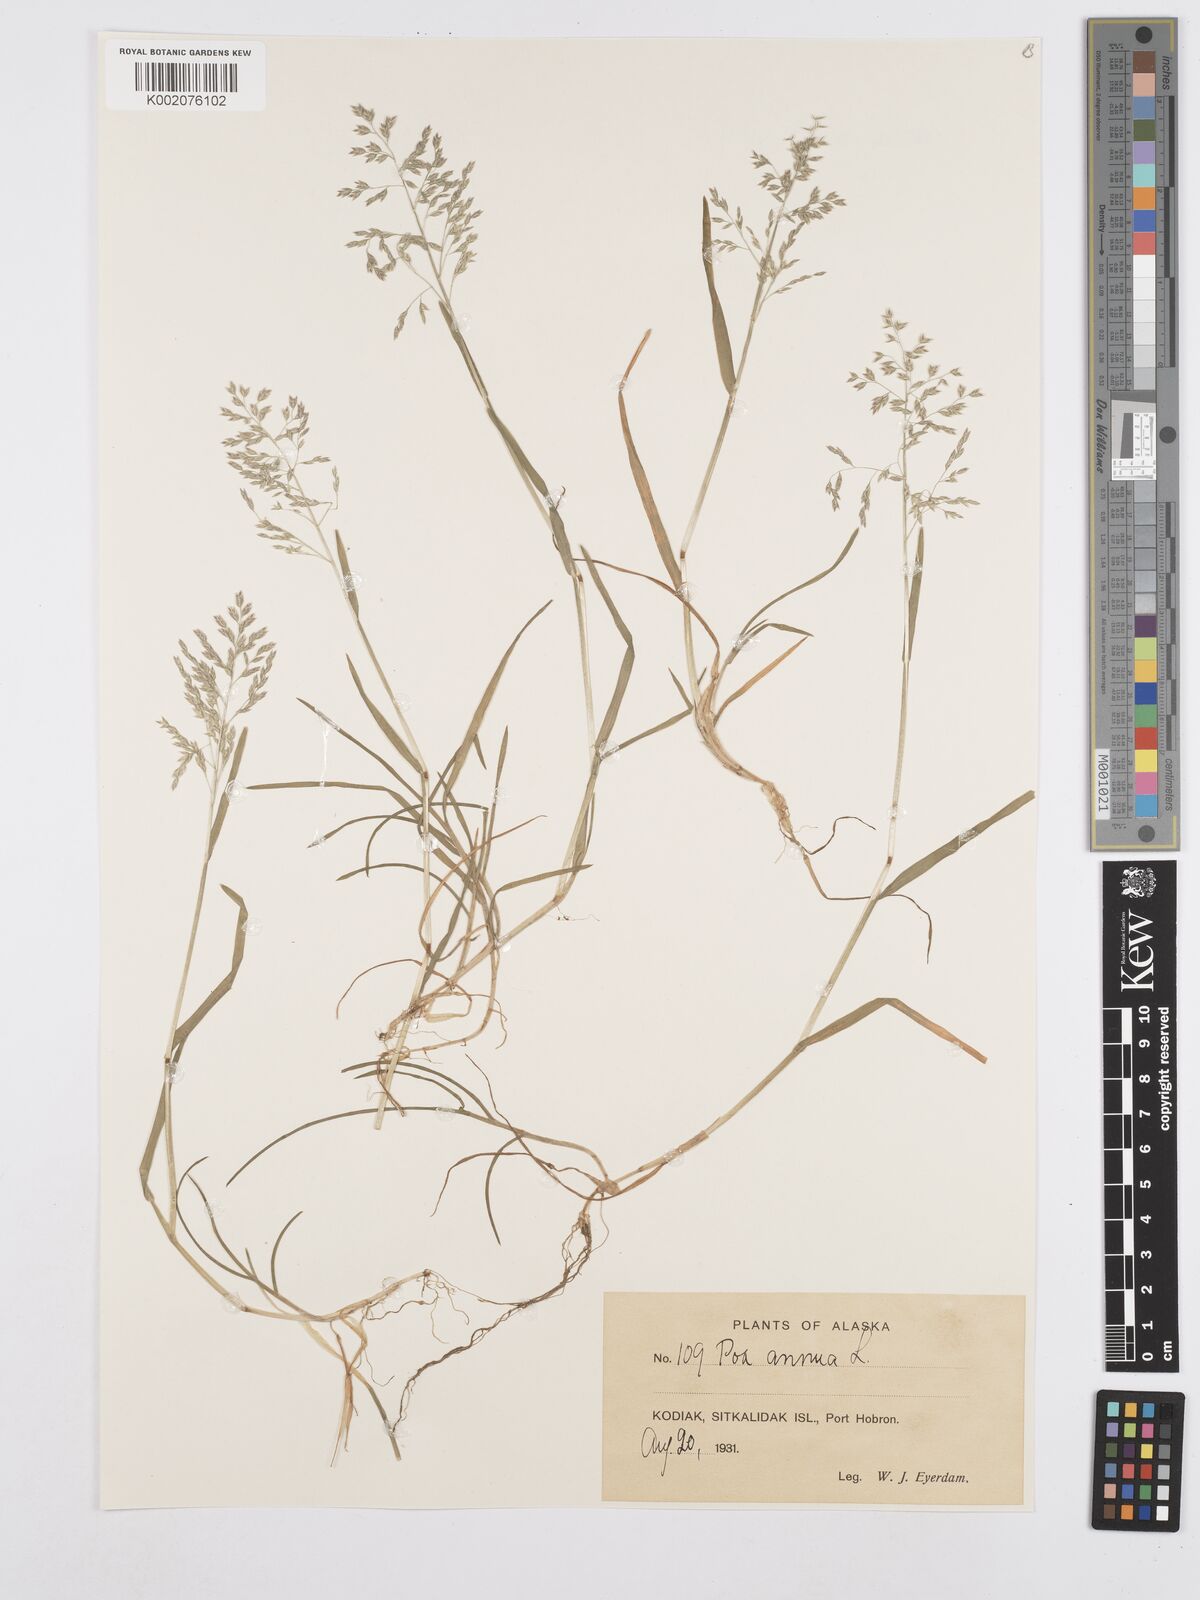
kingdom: Plantae
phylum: Tracheophyta
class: Liliopsida
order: Poales
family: Poaceae
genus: Poa
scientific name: Poa annua
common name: Annual bluegrass
